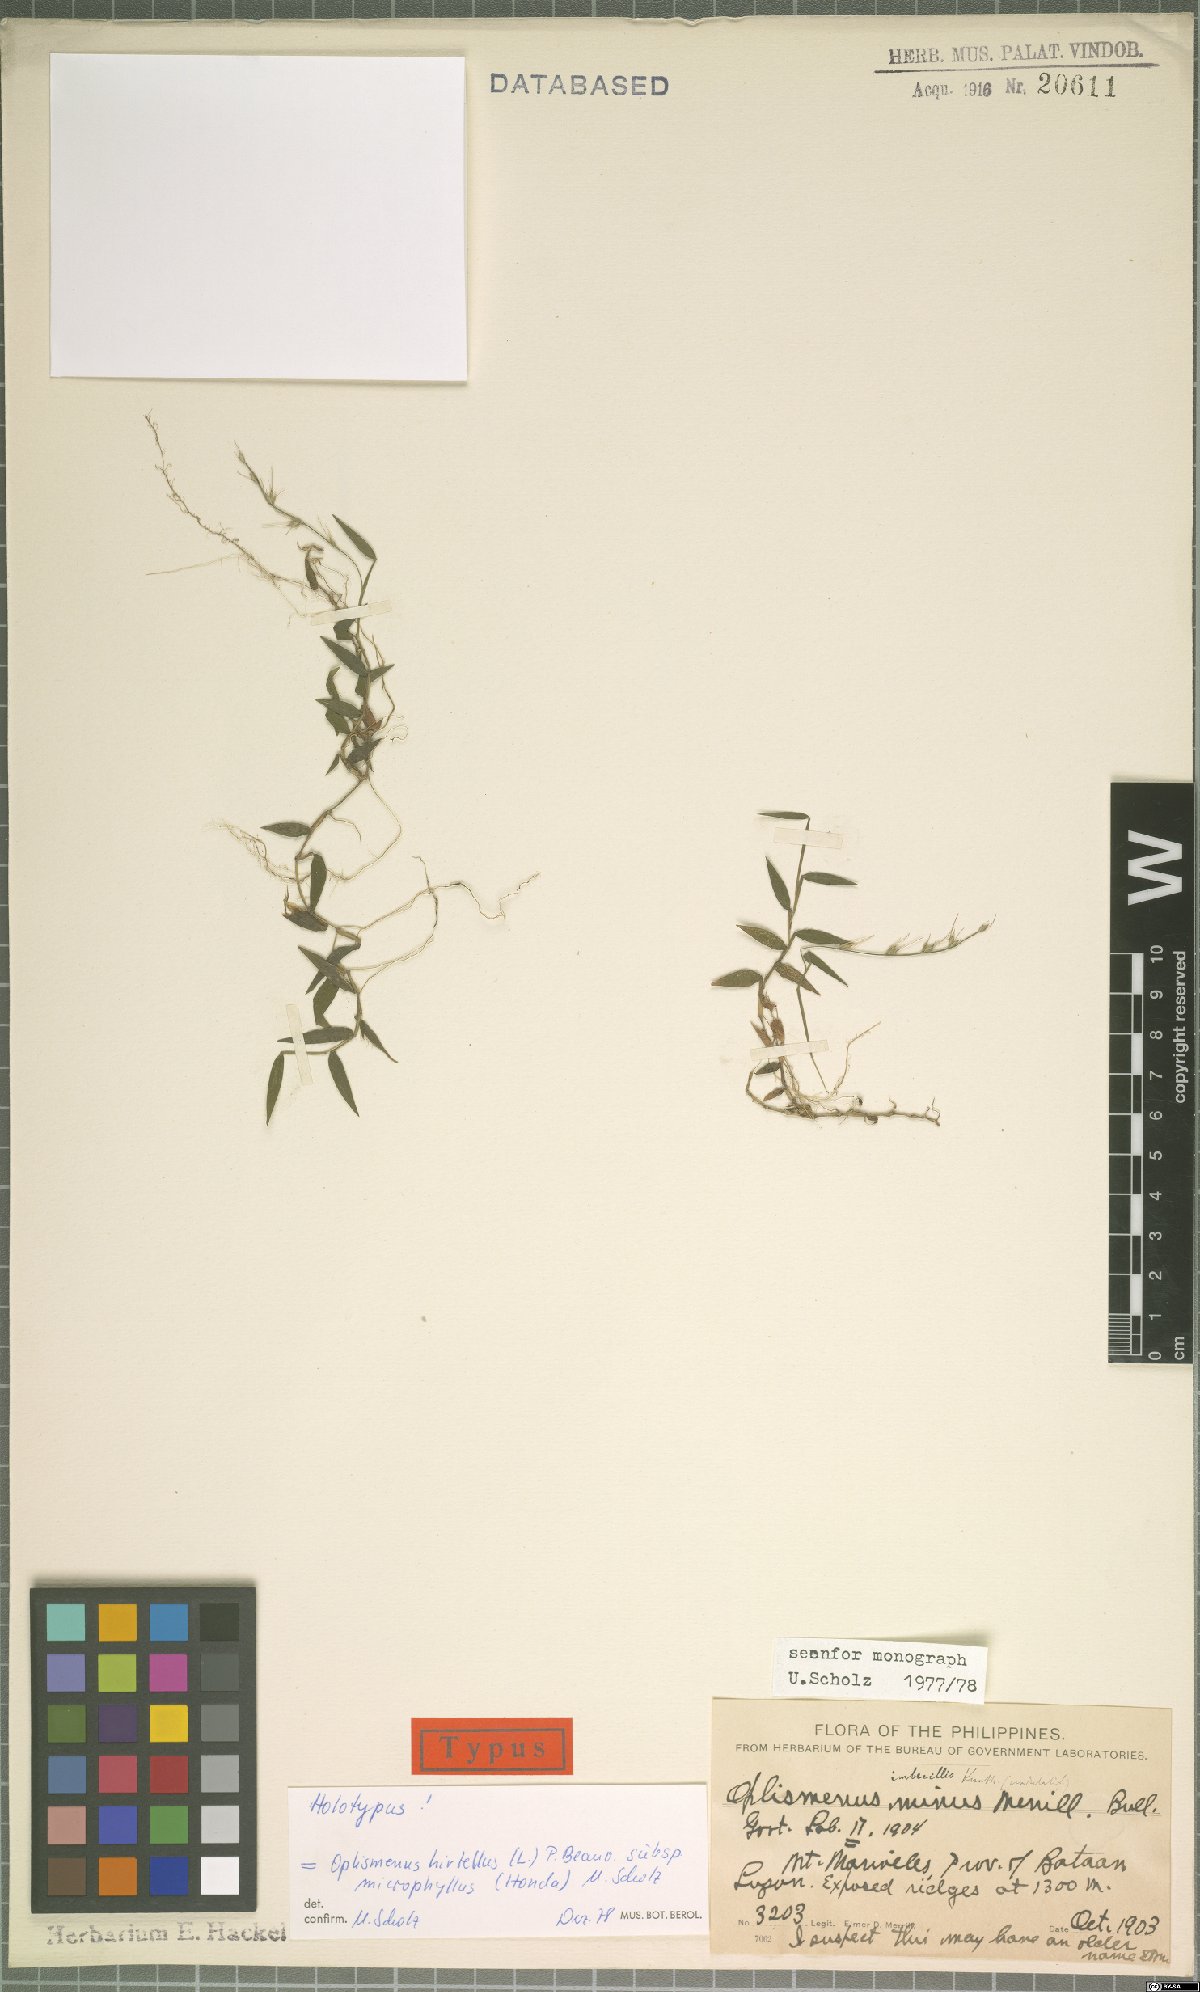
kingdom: Plantae
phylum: Tracheophyta
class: Liliopsida
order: Poales
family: Poaceae
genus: Oplismenus
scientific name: Oplismenus hirtellus
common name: Basketgrass
